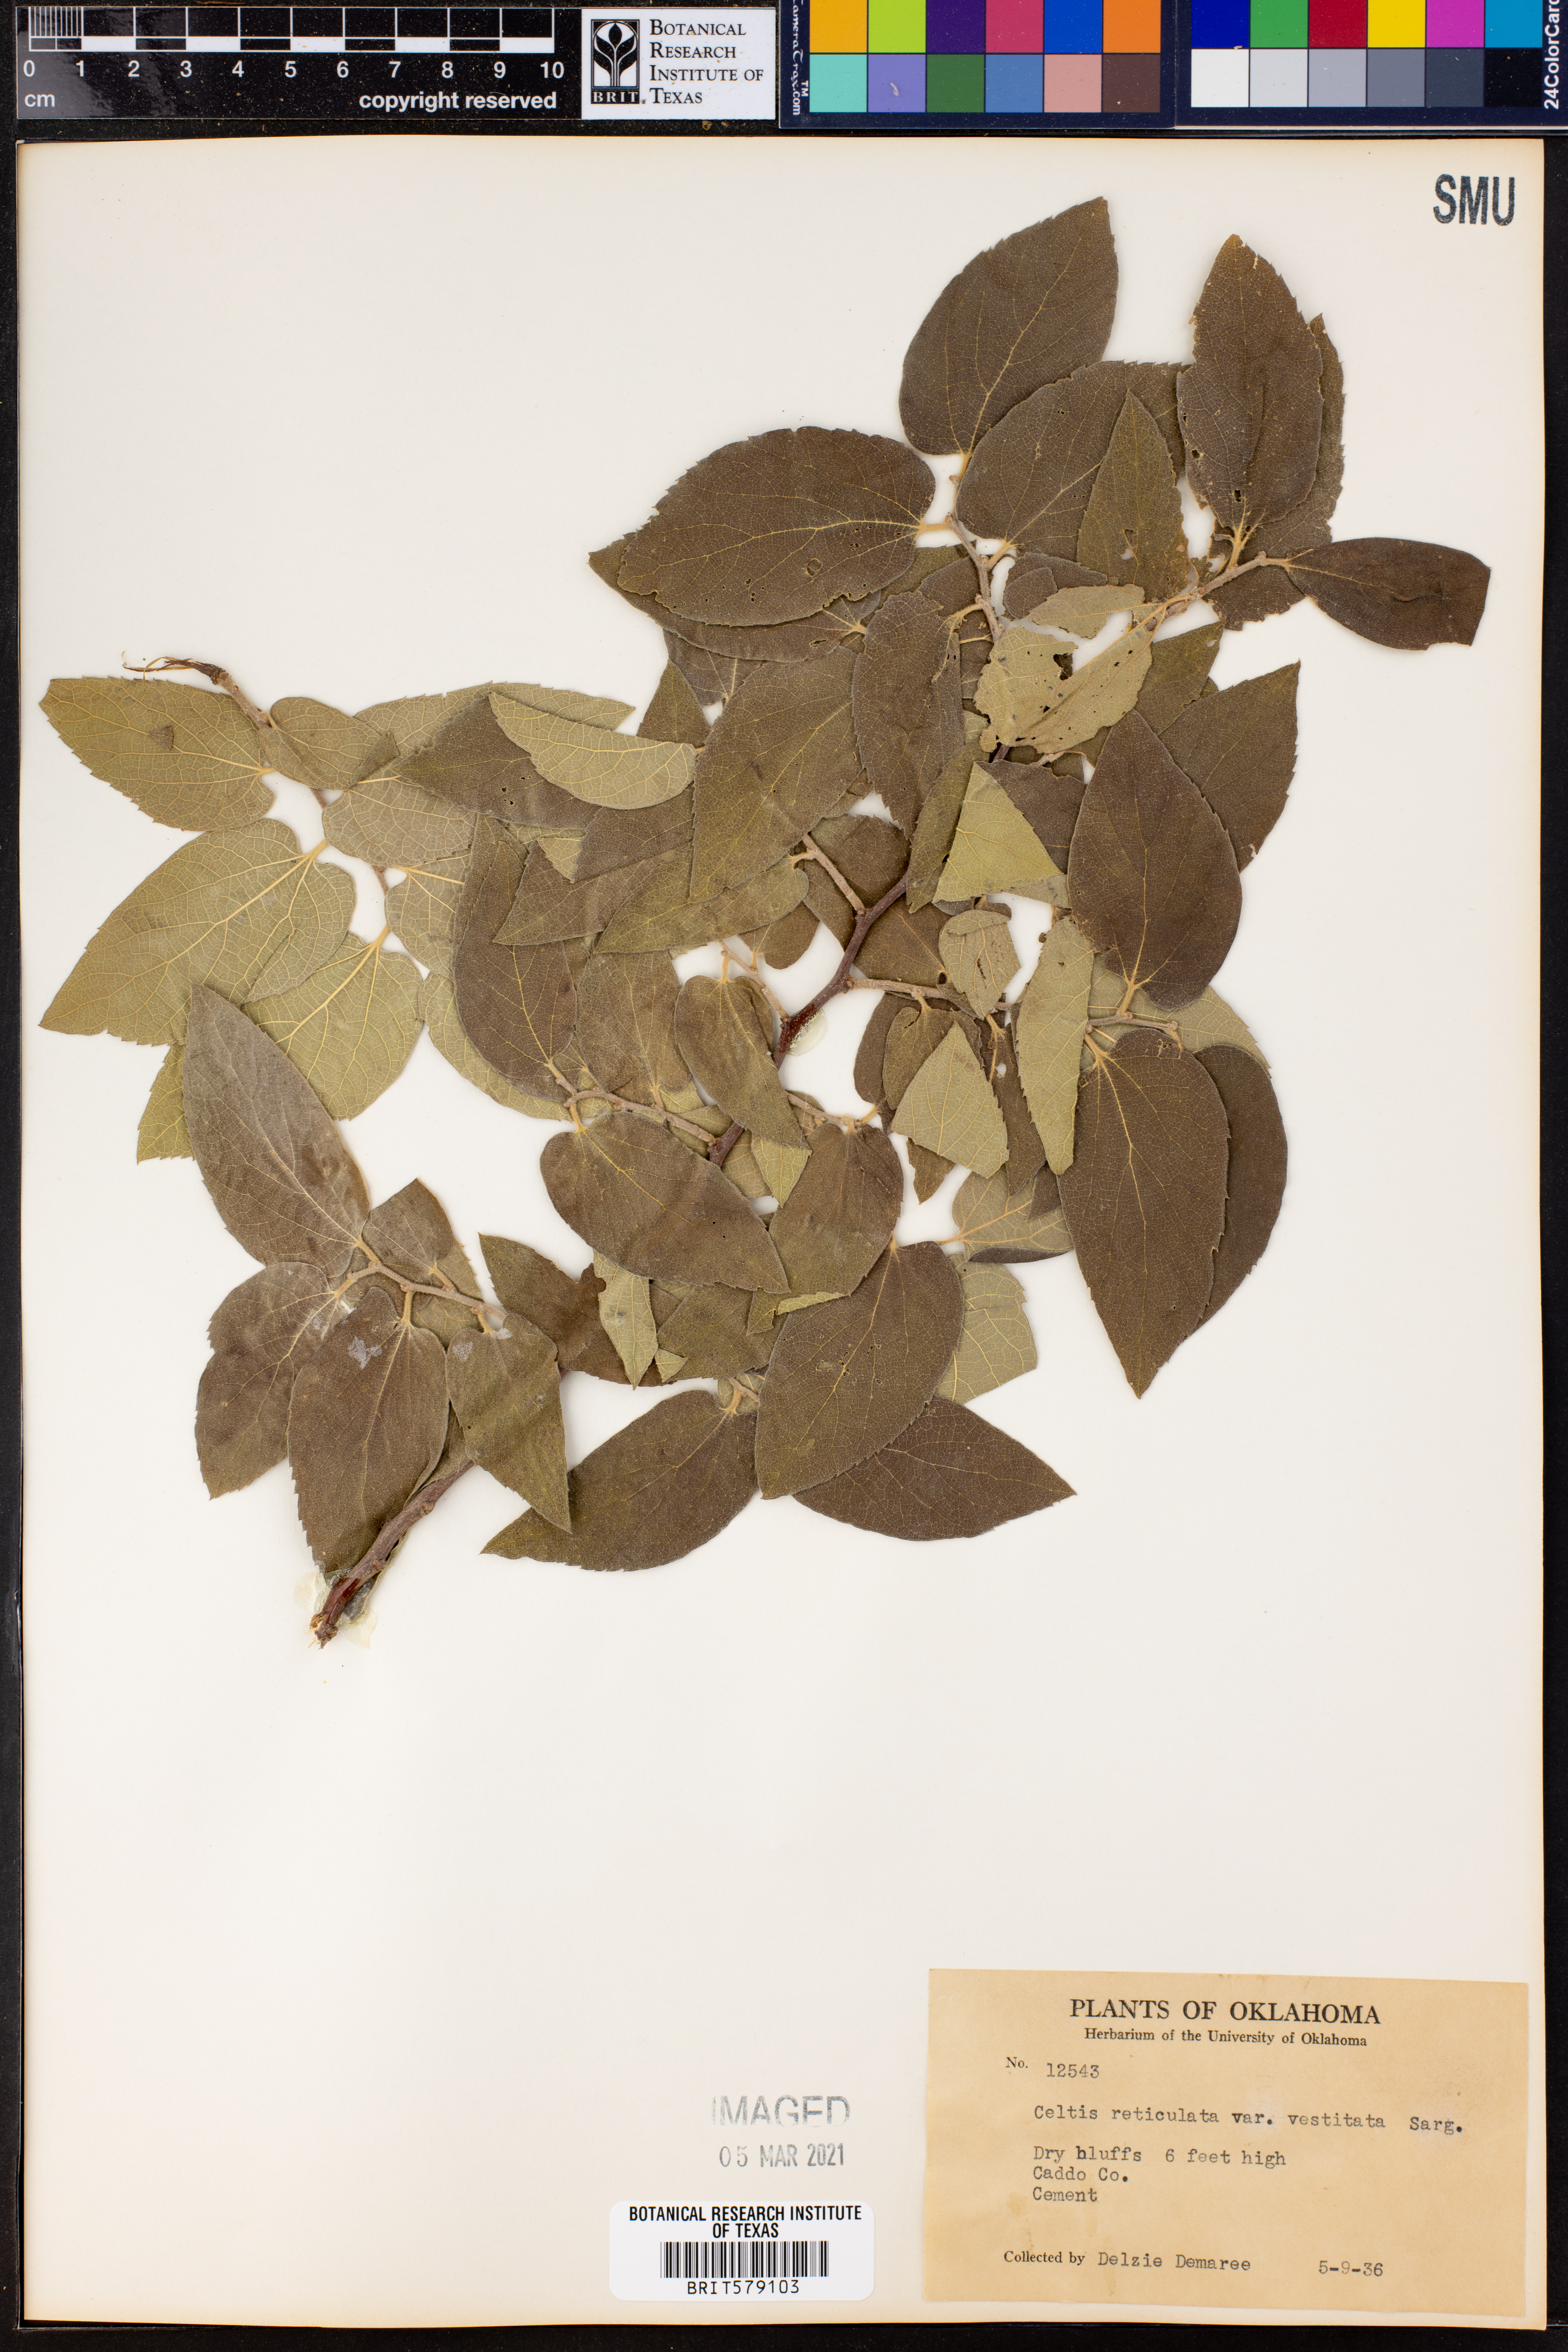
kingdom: Plantae
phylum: Tracheophyta
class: Magnoliopsida
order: Rosales
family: Cannabaceae
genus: Celtis
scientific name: Celtis reticulata
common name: Netleaf hackberry
